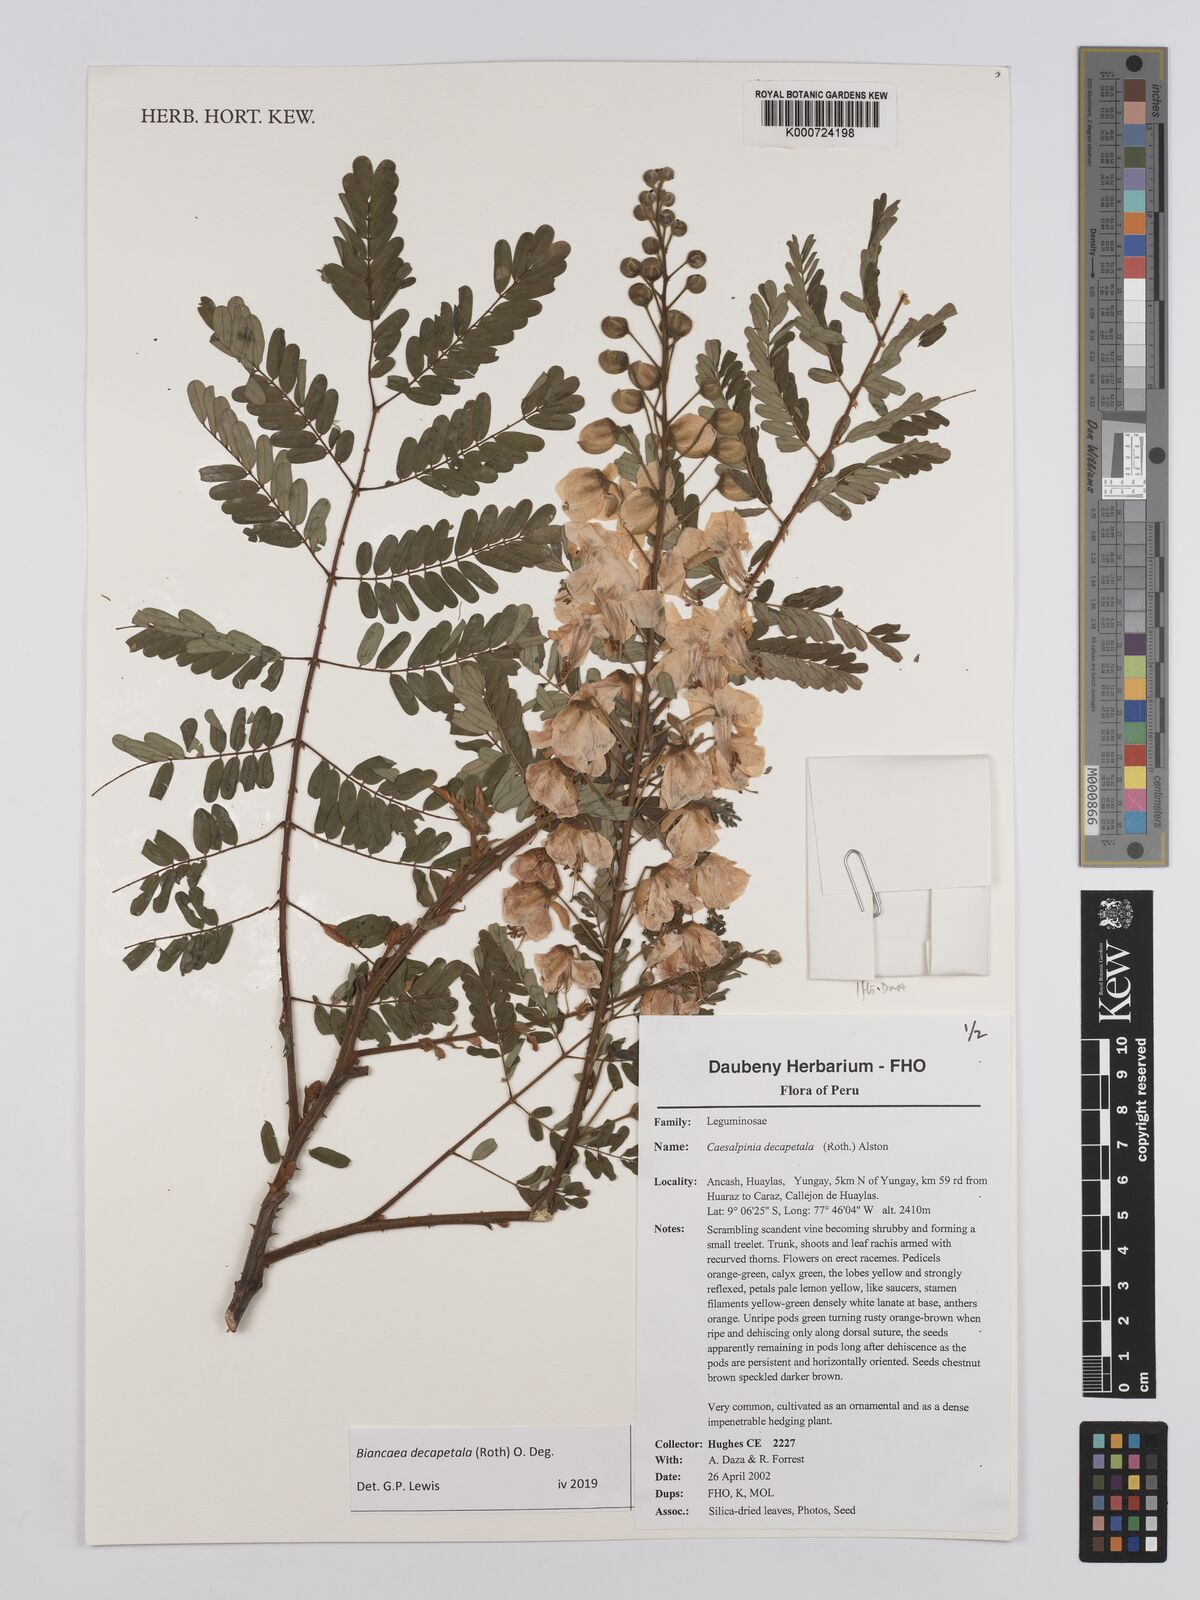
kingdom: Plantae
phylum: Tracheophyta
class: Magnoliopsida
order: Fabales
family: Fabaceae
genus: Biancaea
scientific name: Biancaea decapetala
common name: Cat's claw
